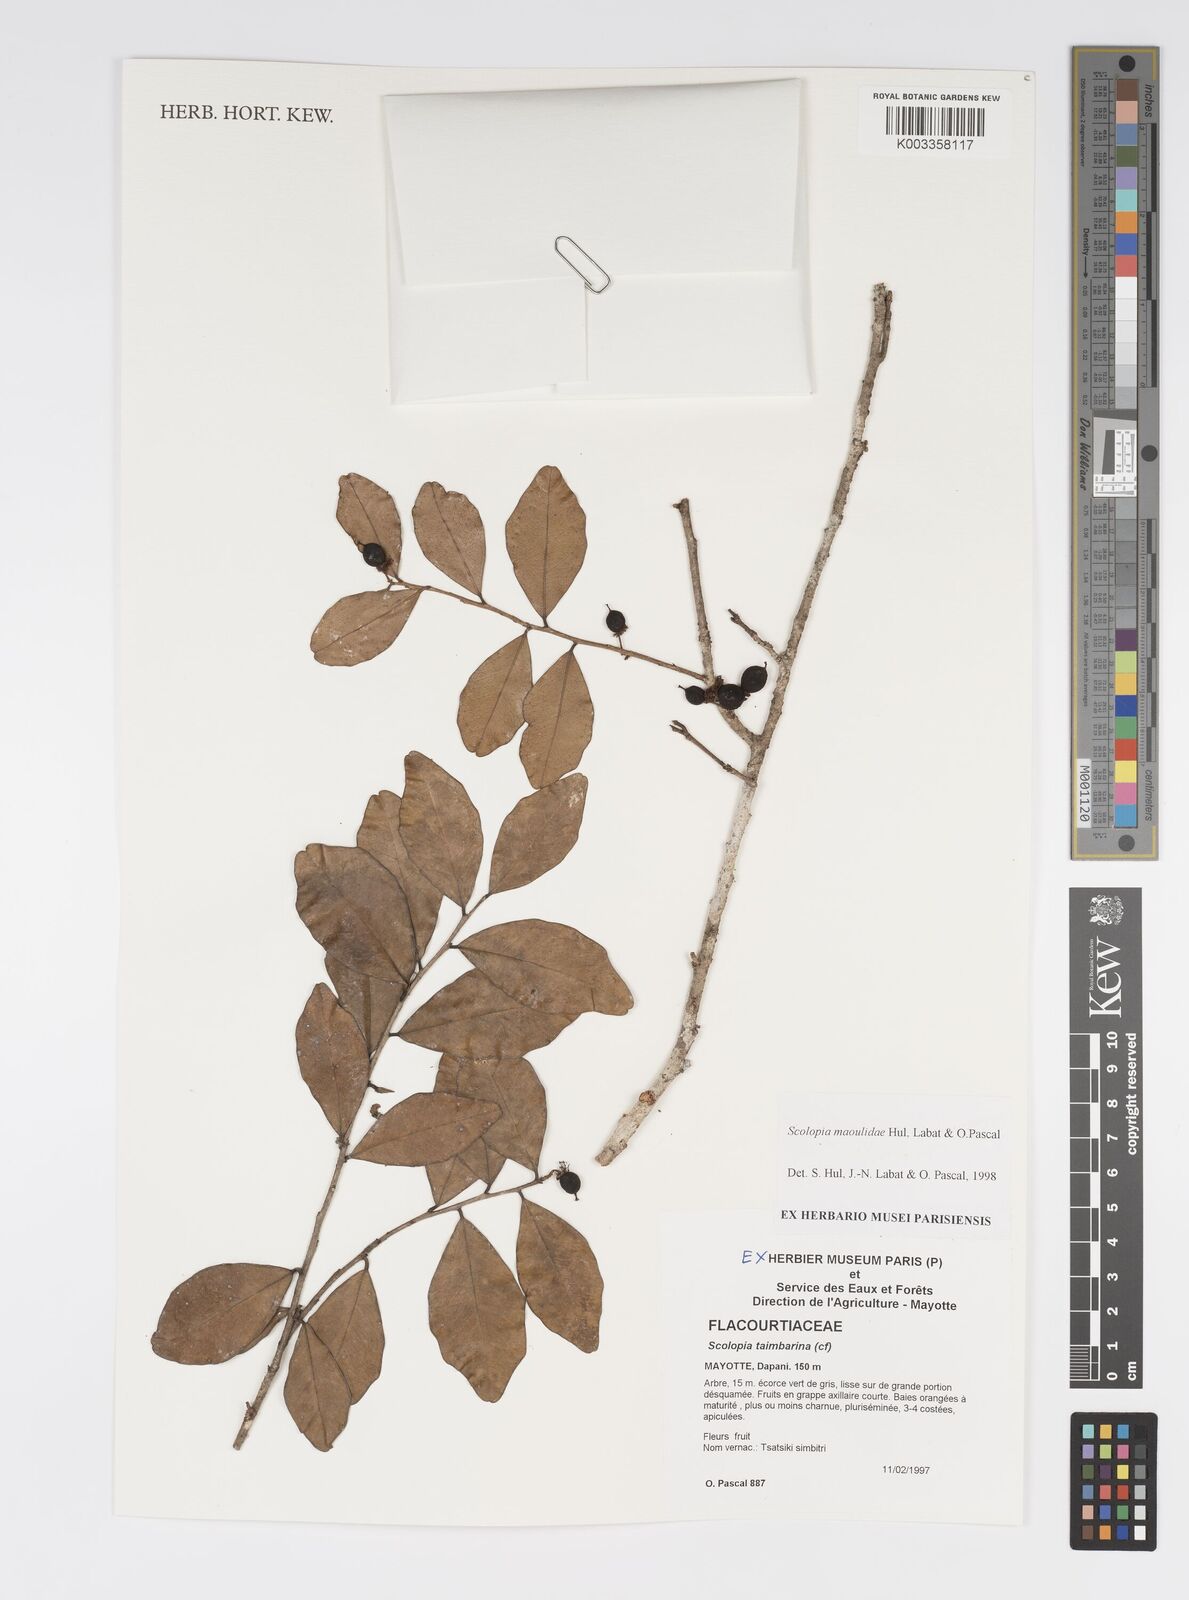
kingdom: Plantae
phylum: Tracheophyta
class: Magnoliopsida
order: Malpighiales
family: Salicaceae
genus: Scolopia
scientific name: Scolopia maoulidae
